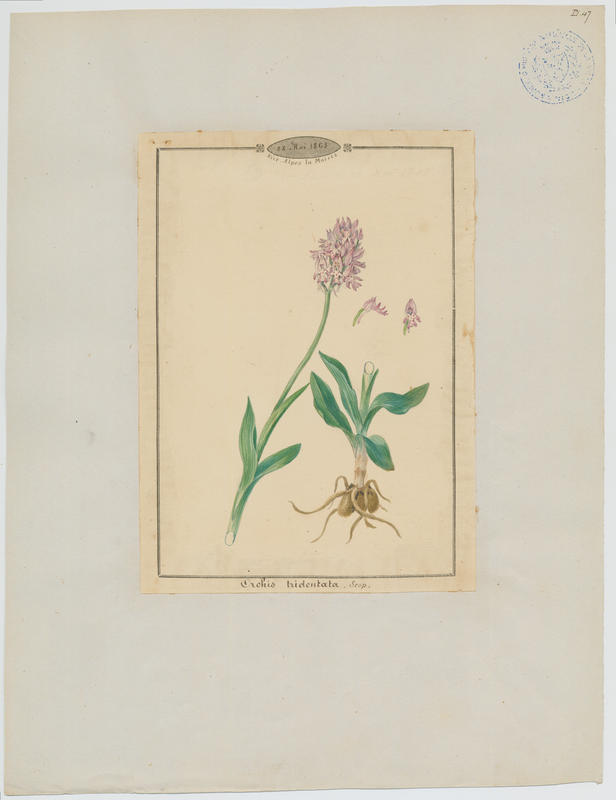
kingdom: Plantae
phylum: Tracheophyta
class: Liliopsida
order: Asparagales
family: Orchidaceae
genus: Neotinea
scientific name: Neotinea tridentata
